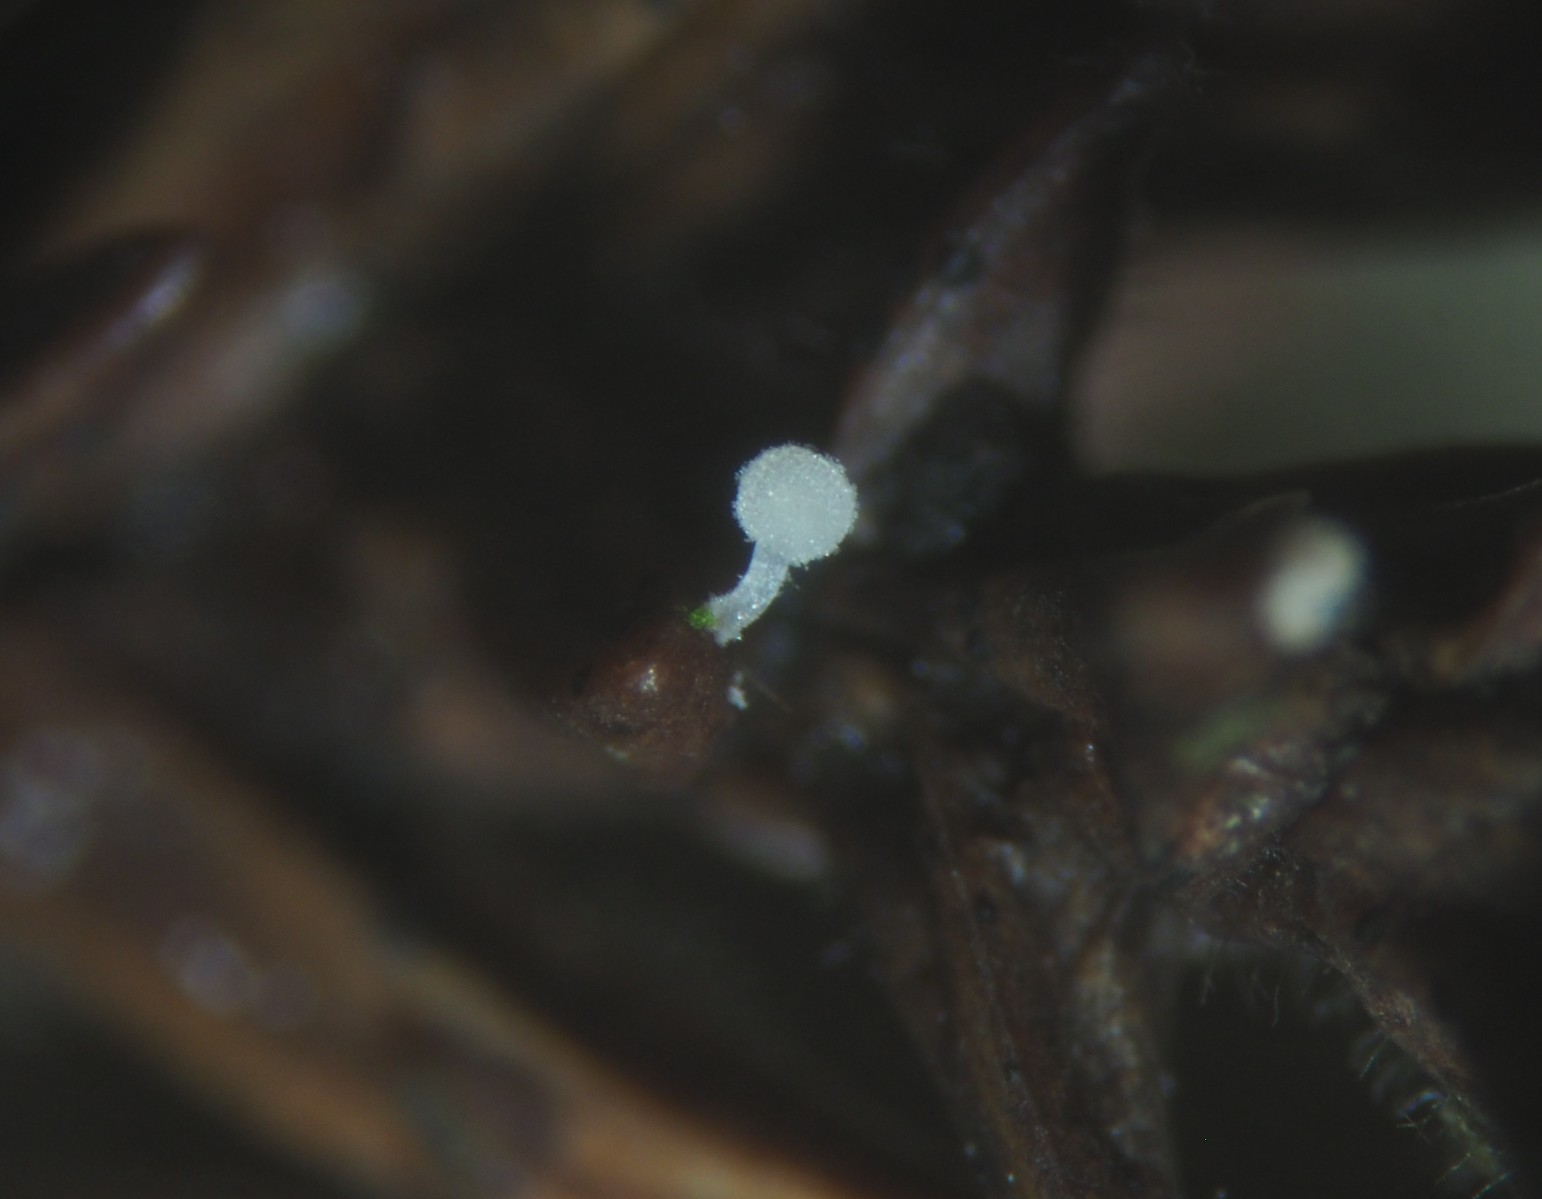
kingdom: Fungi
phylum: Basidiomycota
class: Agaricomycetes
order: Agaricales
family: Physalacriaceae
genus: Physalacria
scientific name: Physalacria cryptomeriae
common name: japangran-boldkølle
